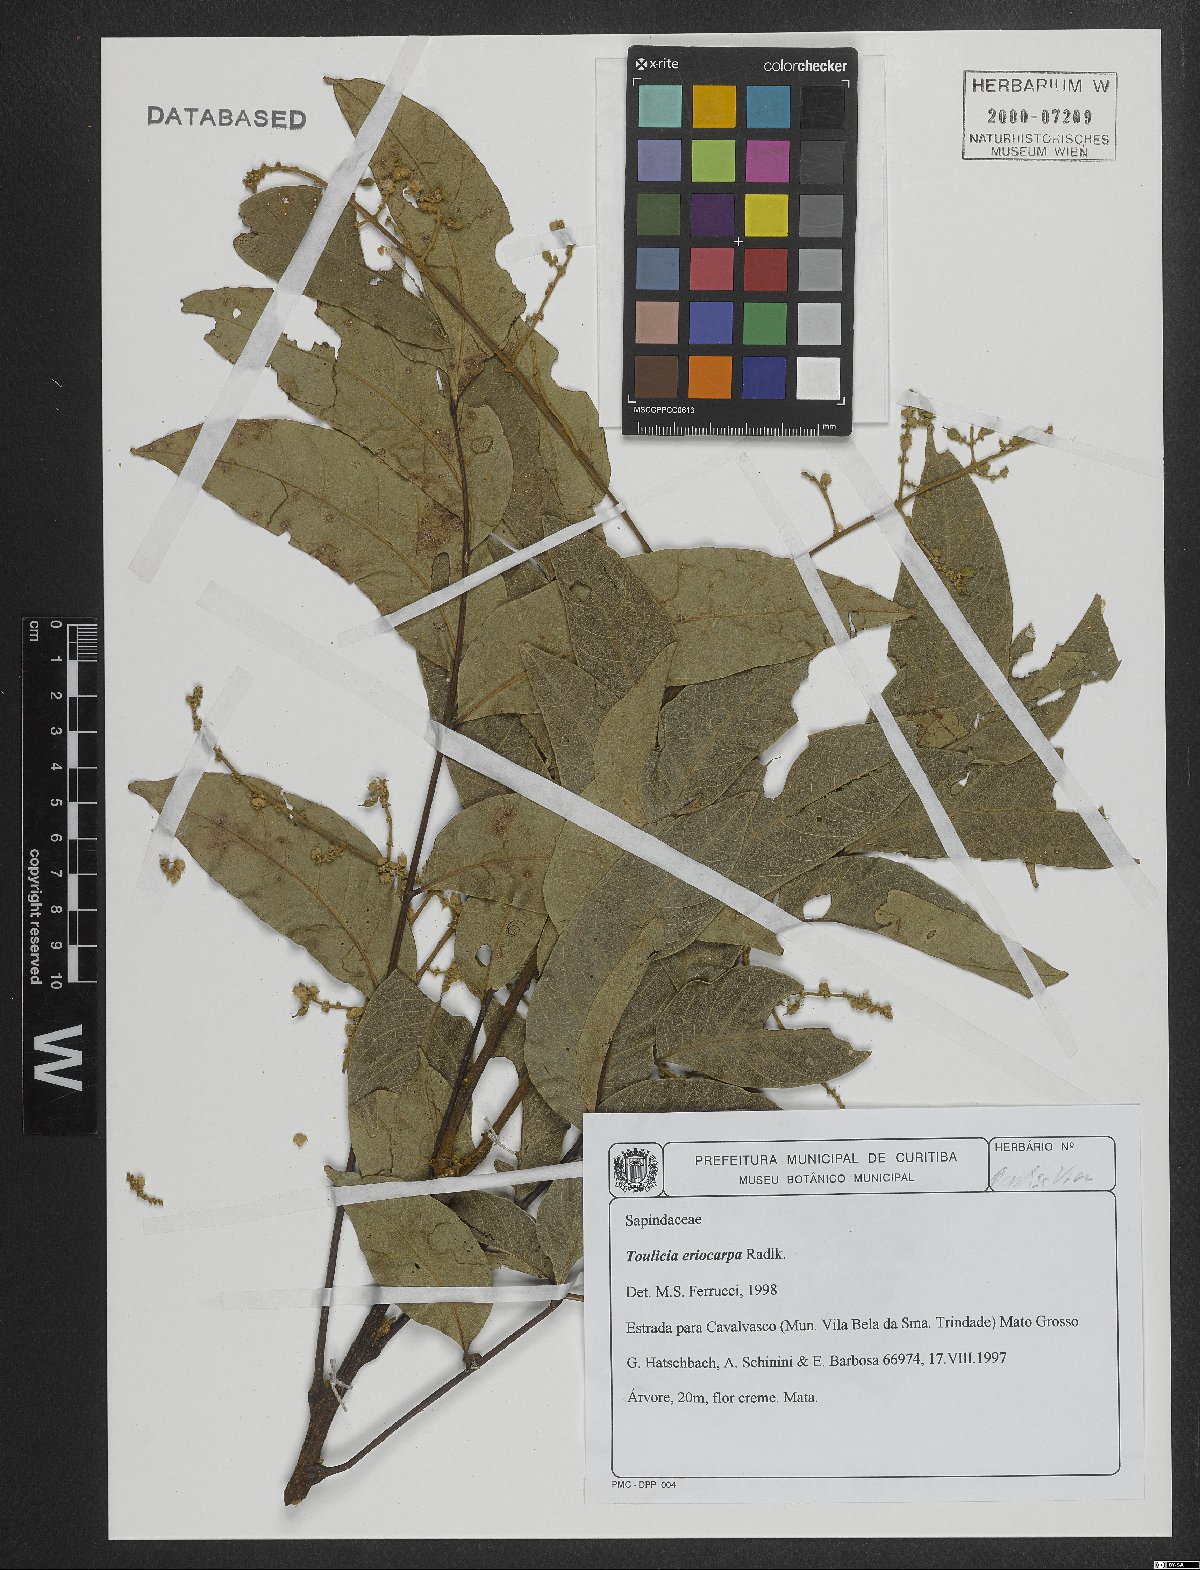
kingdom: Plantae
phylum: Tracheophyta
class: Magnoliopsida
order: Sapindales
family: Sapindaceae
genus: Toulicia
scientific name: Toulicia eriocarpa
